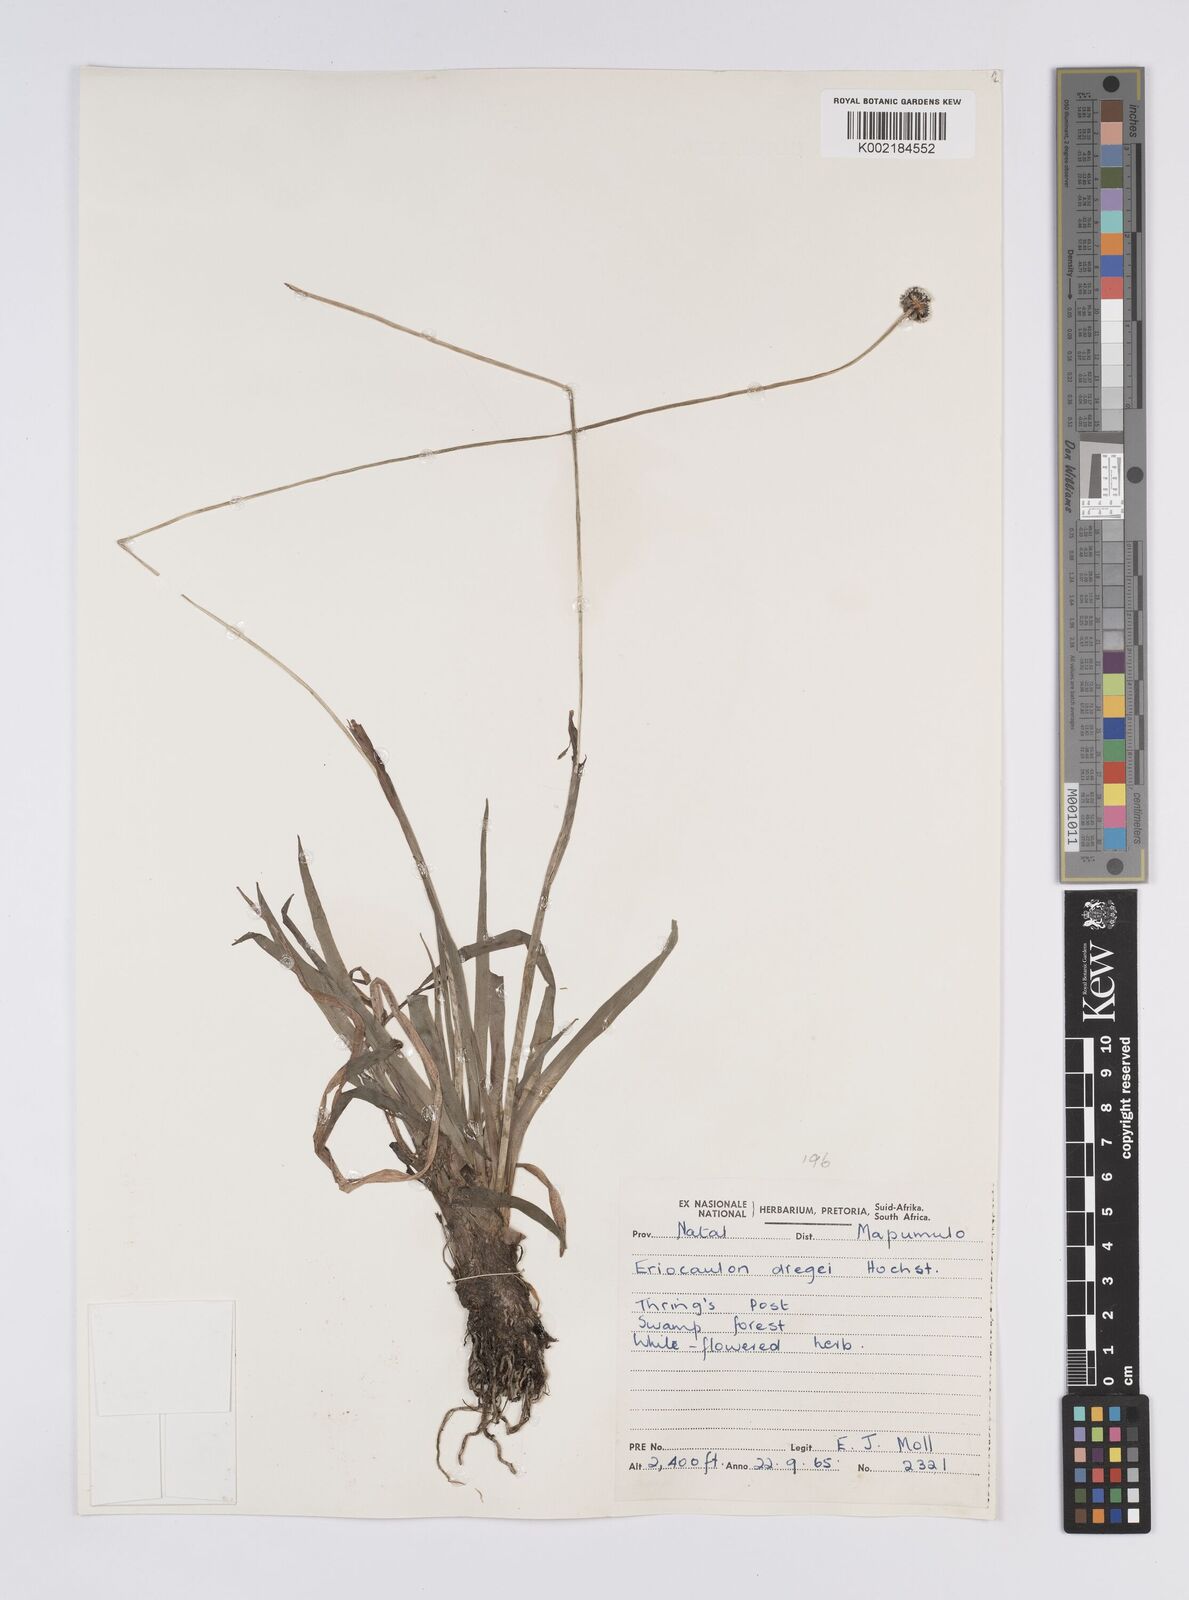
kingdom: Plantae
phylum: Tracheophyta
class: Liliopsida
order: Poales
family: Eriocaulaceae
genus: Eriocaulon
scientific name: Eriocaulon dregei
